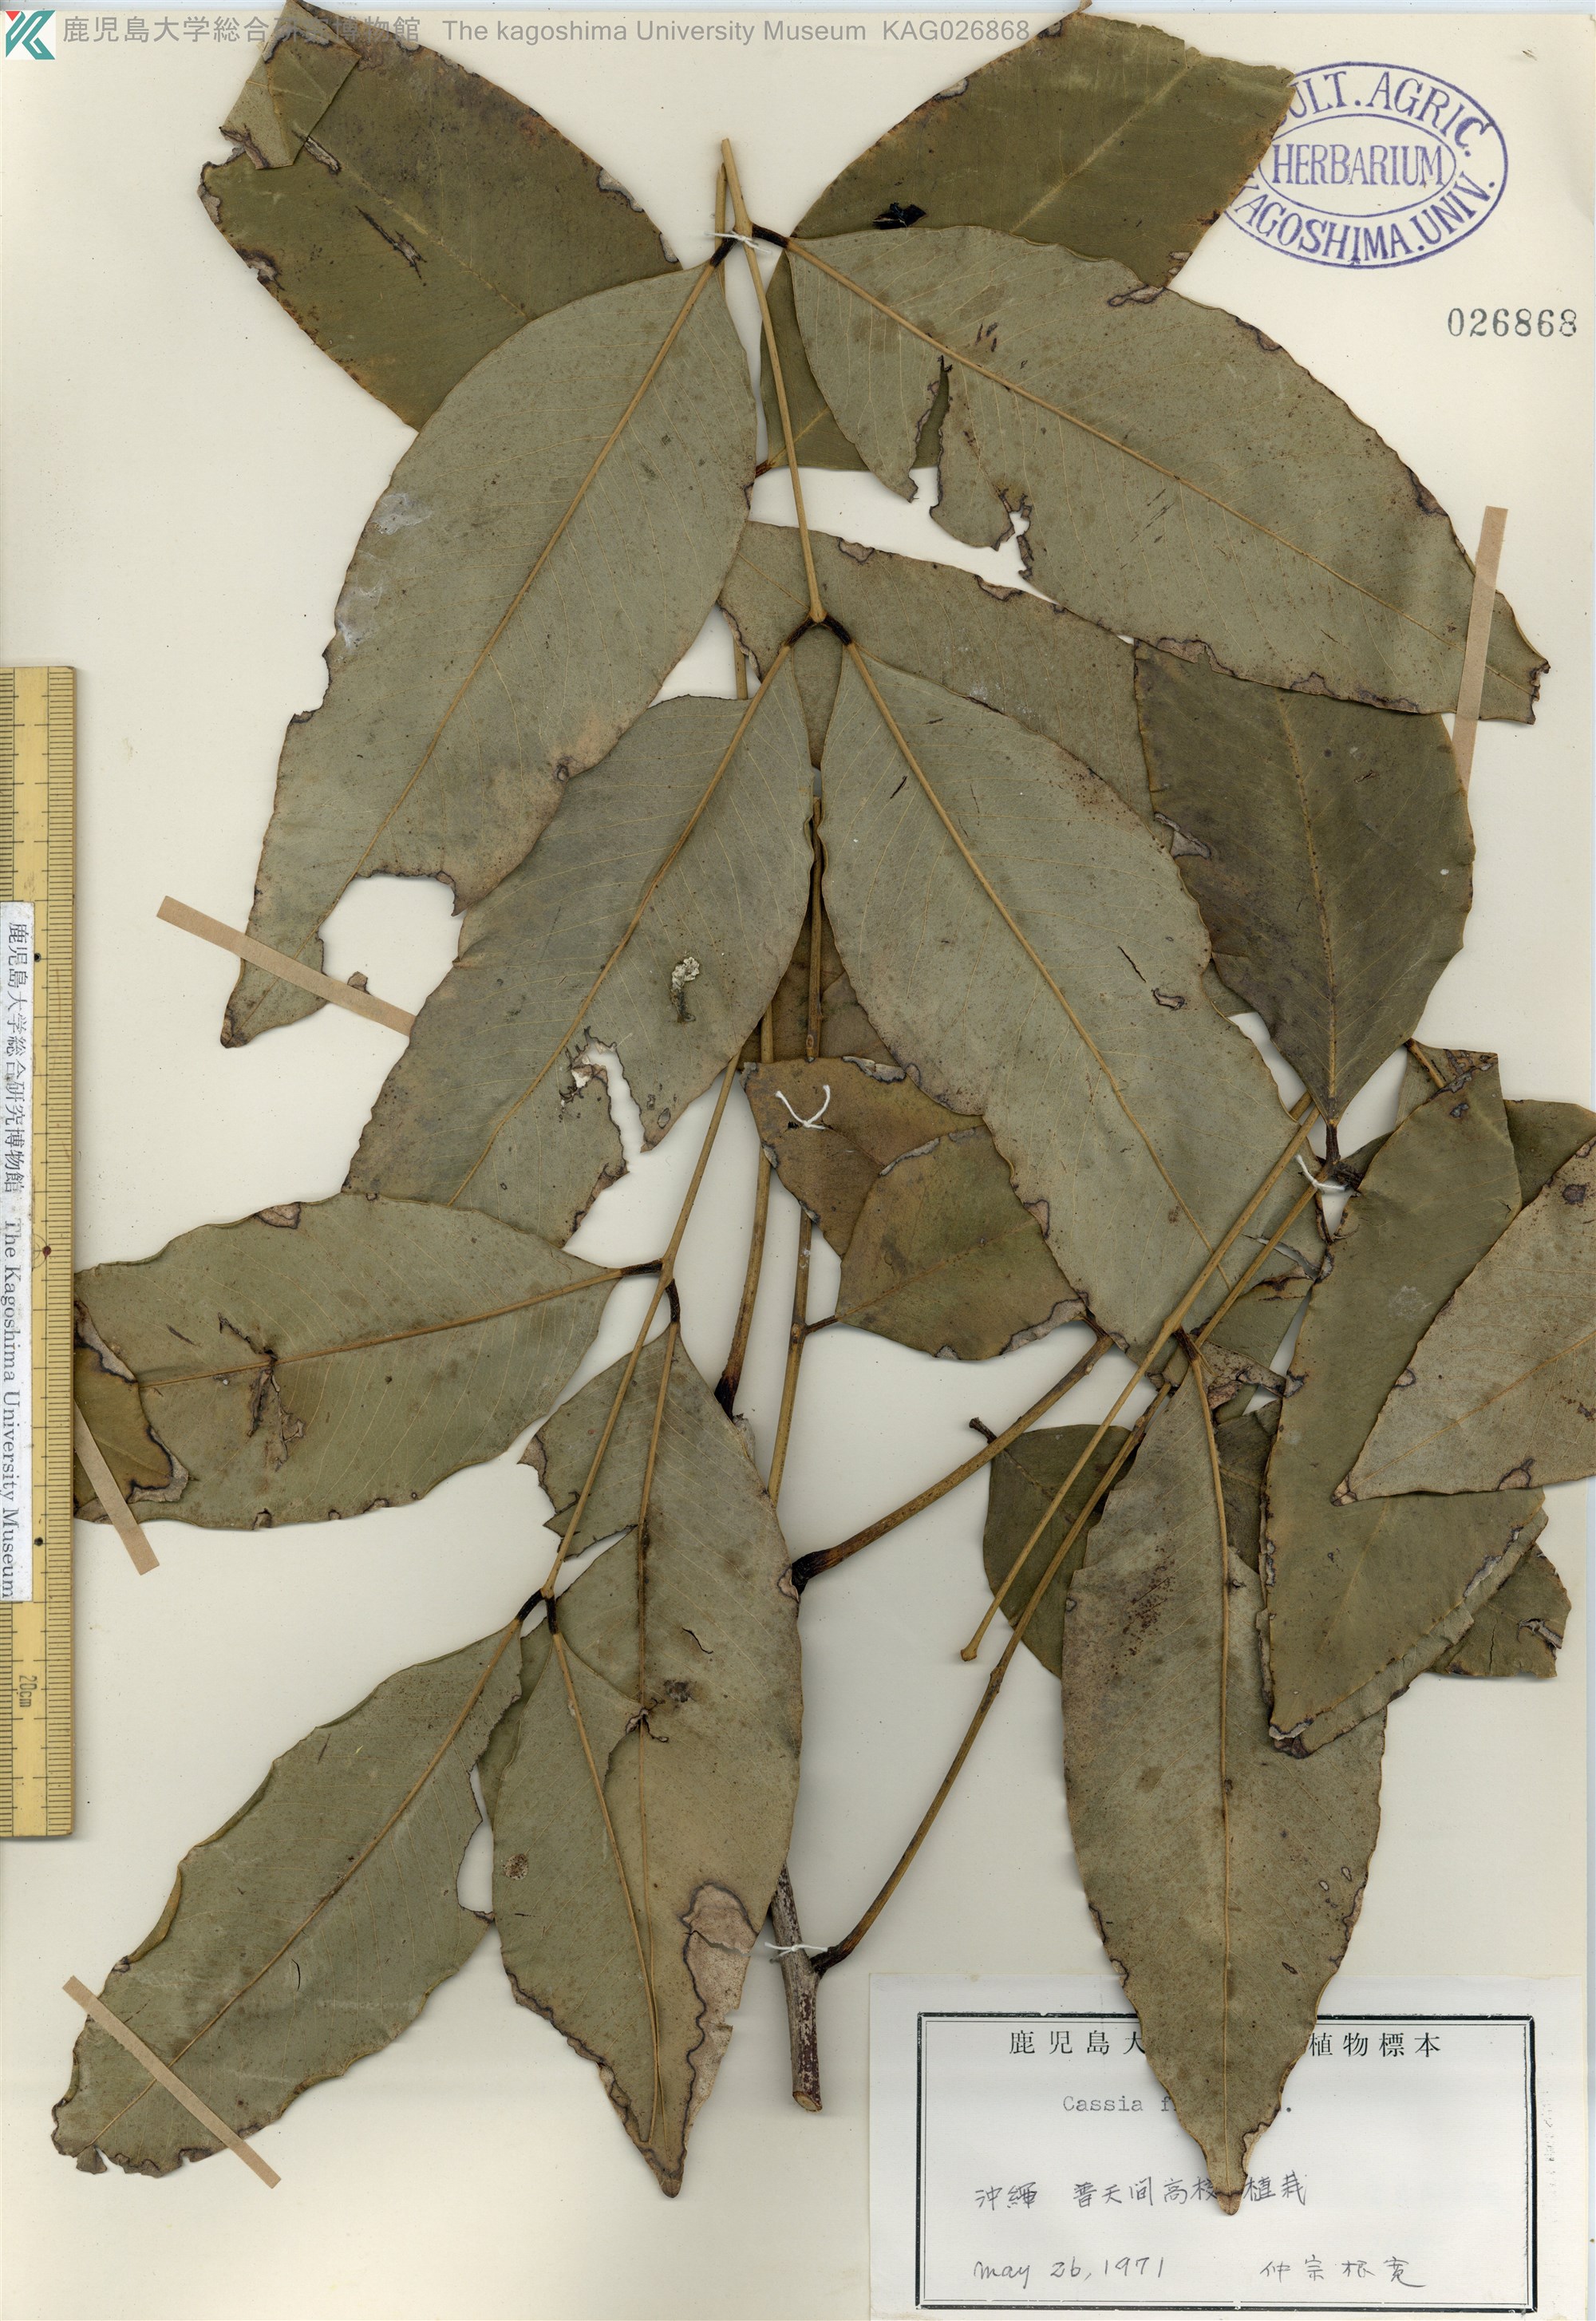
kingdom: Plantae
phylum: Tracheophyta
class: Magnoliopsida
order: Fabales
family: Fabaceae
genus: Cassia
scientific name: Cassia fistula
